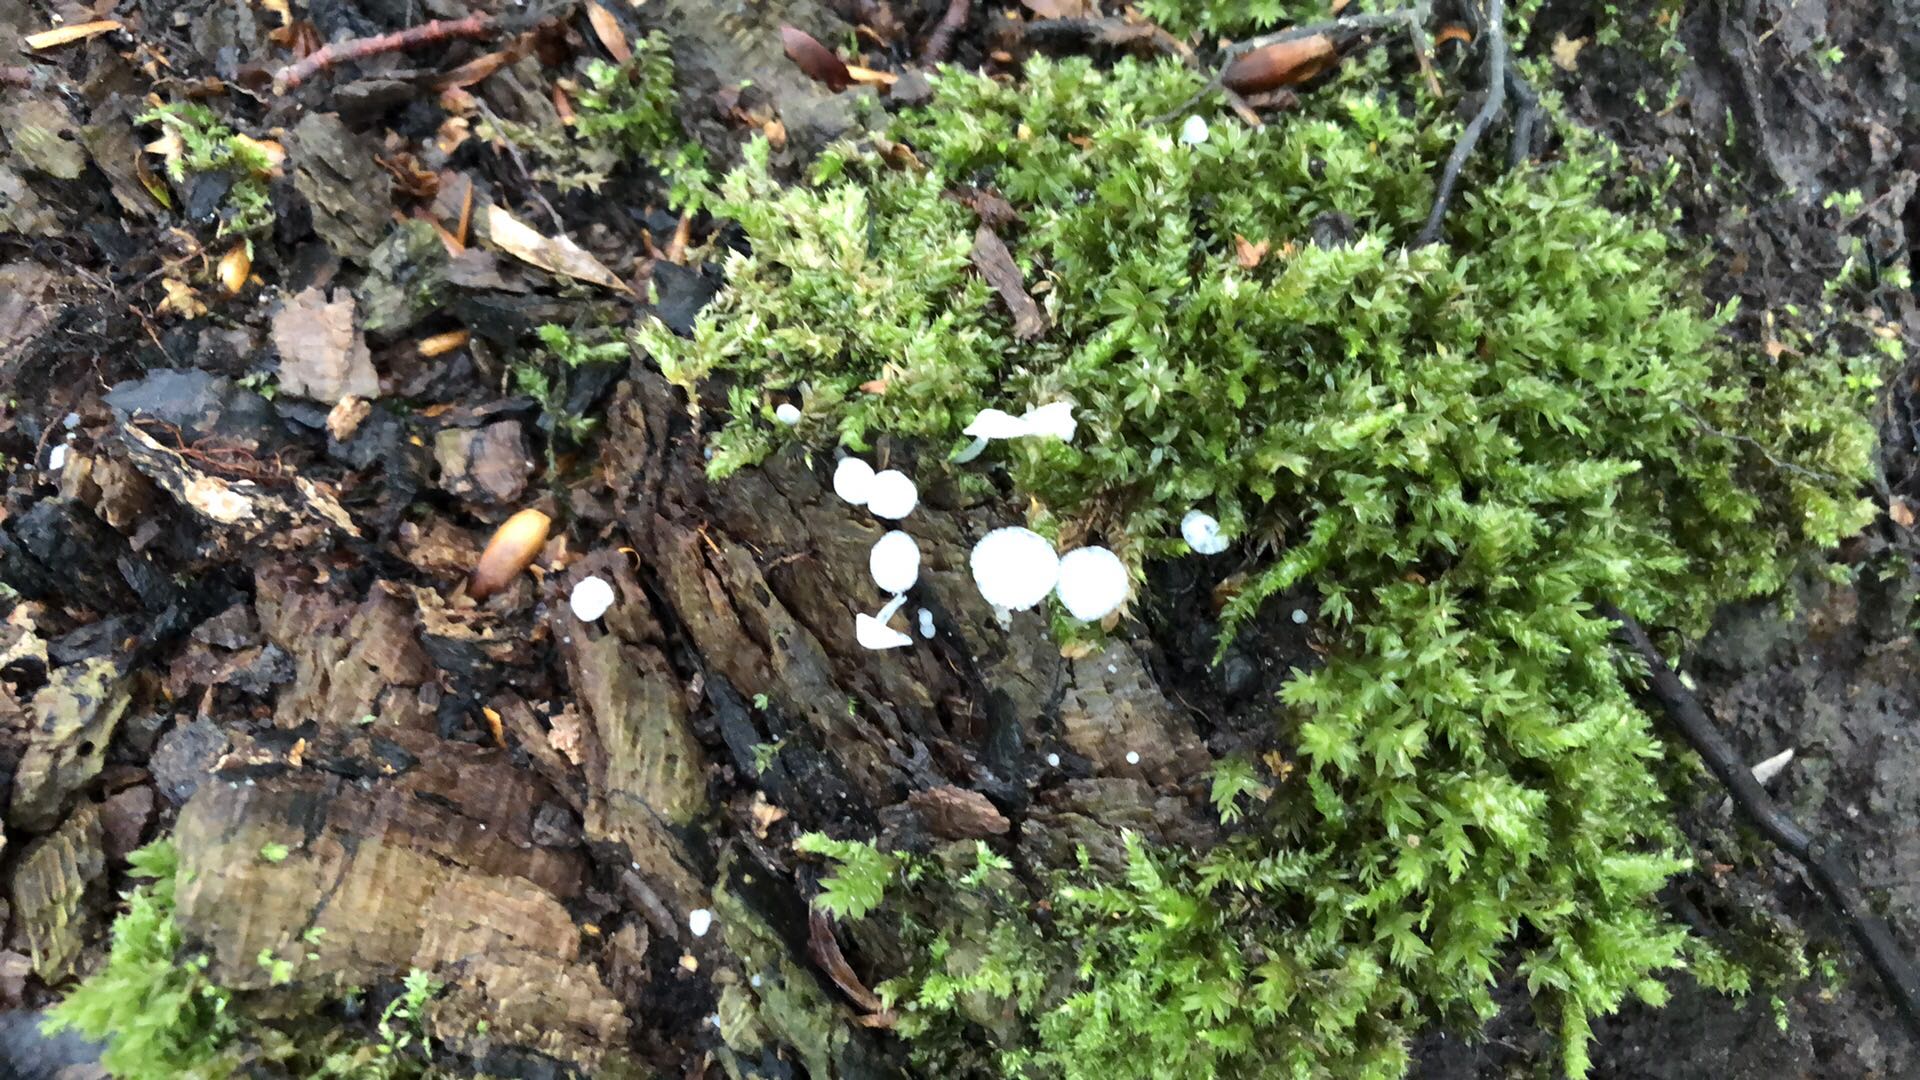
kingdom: Fungi
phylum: Basidiomycota
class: Agaricomycetes
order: Agaricales
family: Tricholomataceae
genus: Delicatula
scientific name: Delicatula integrella
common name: slørhuesvamp
